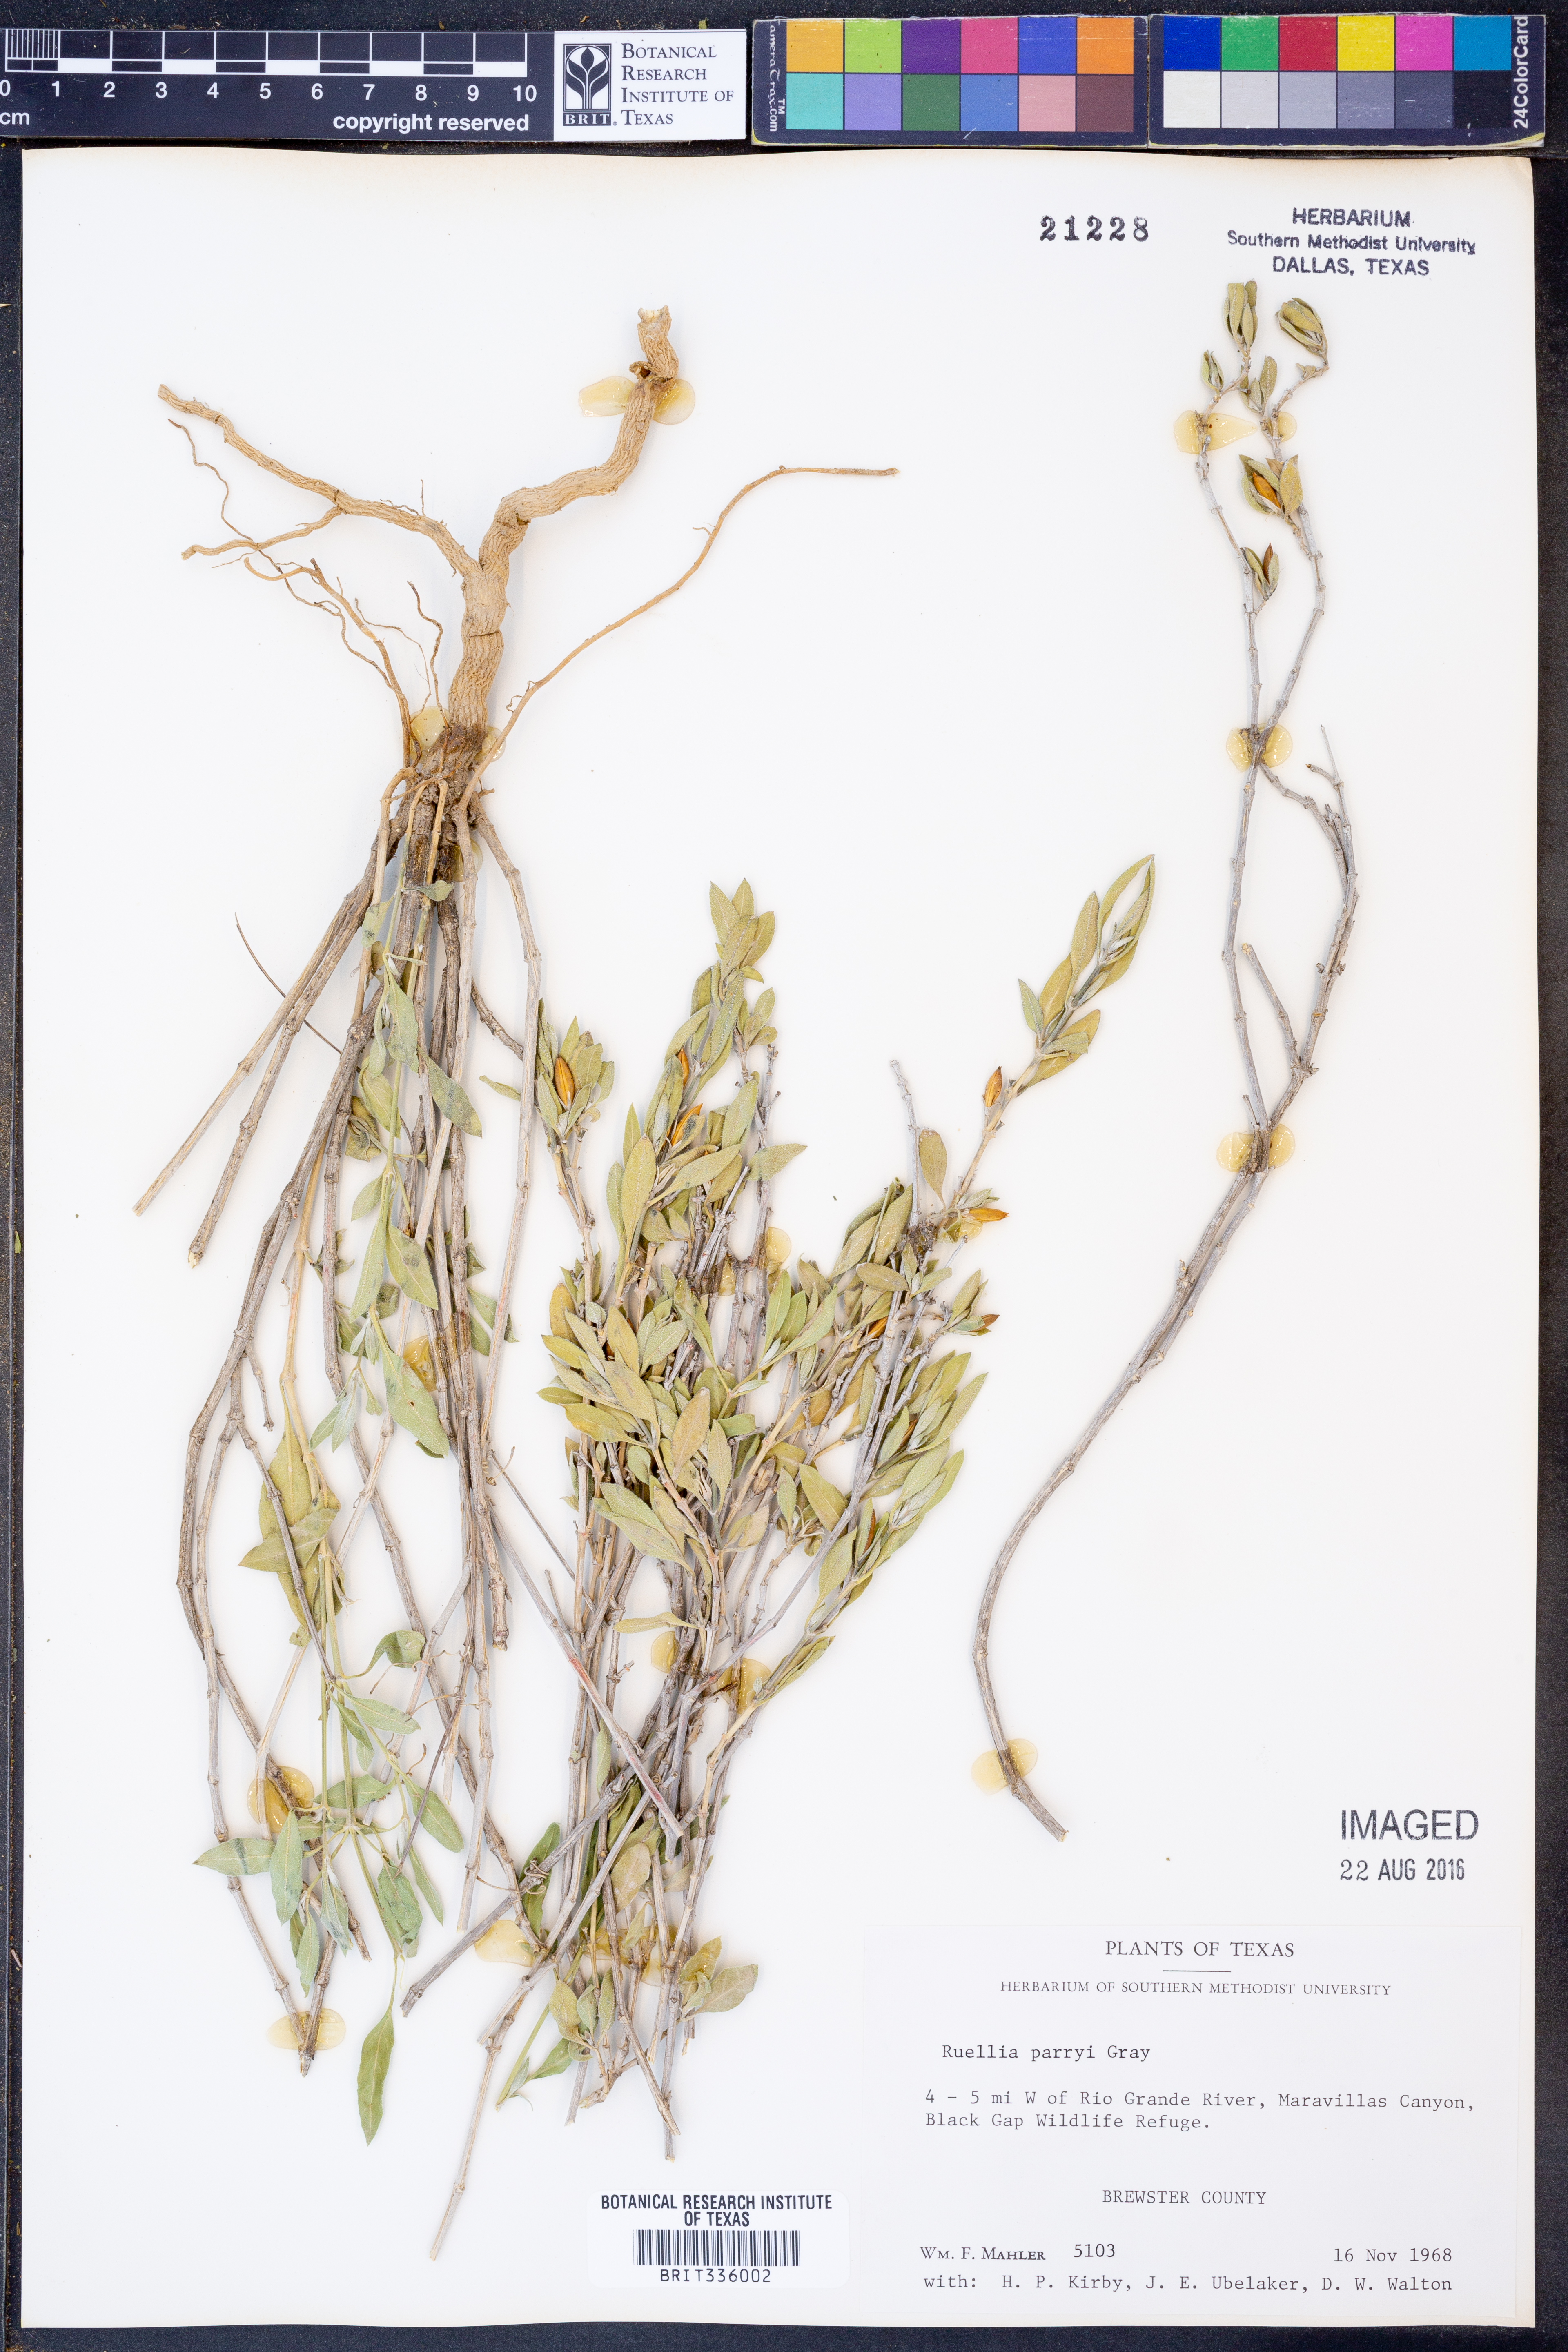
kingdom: Plantae
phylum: Tracheophyta
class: Magnoliopsida
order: Lamiales
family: Acanthaceae
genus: Ruellia
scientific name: Ruellia parryi
